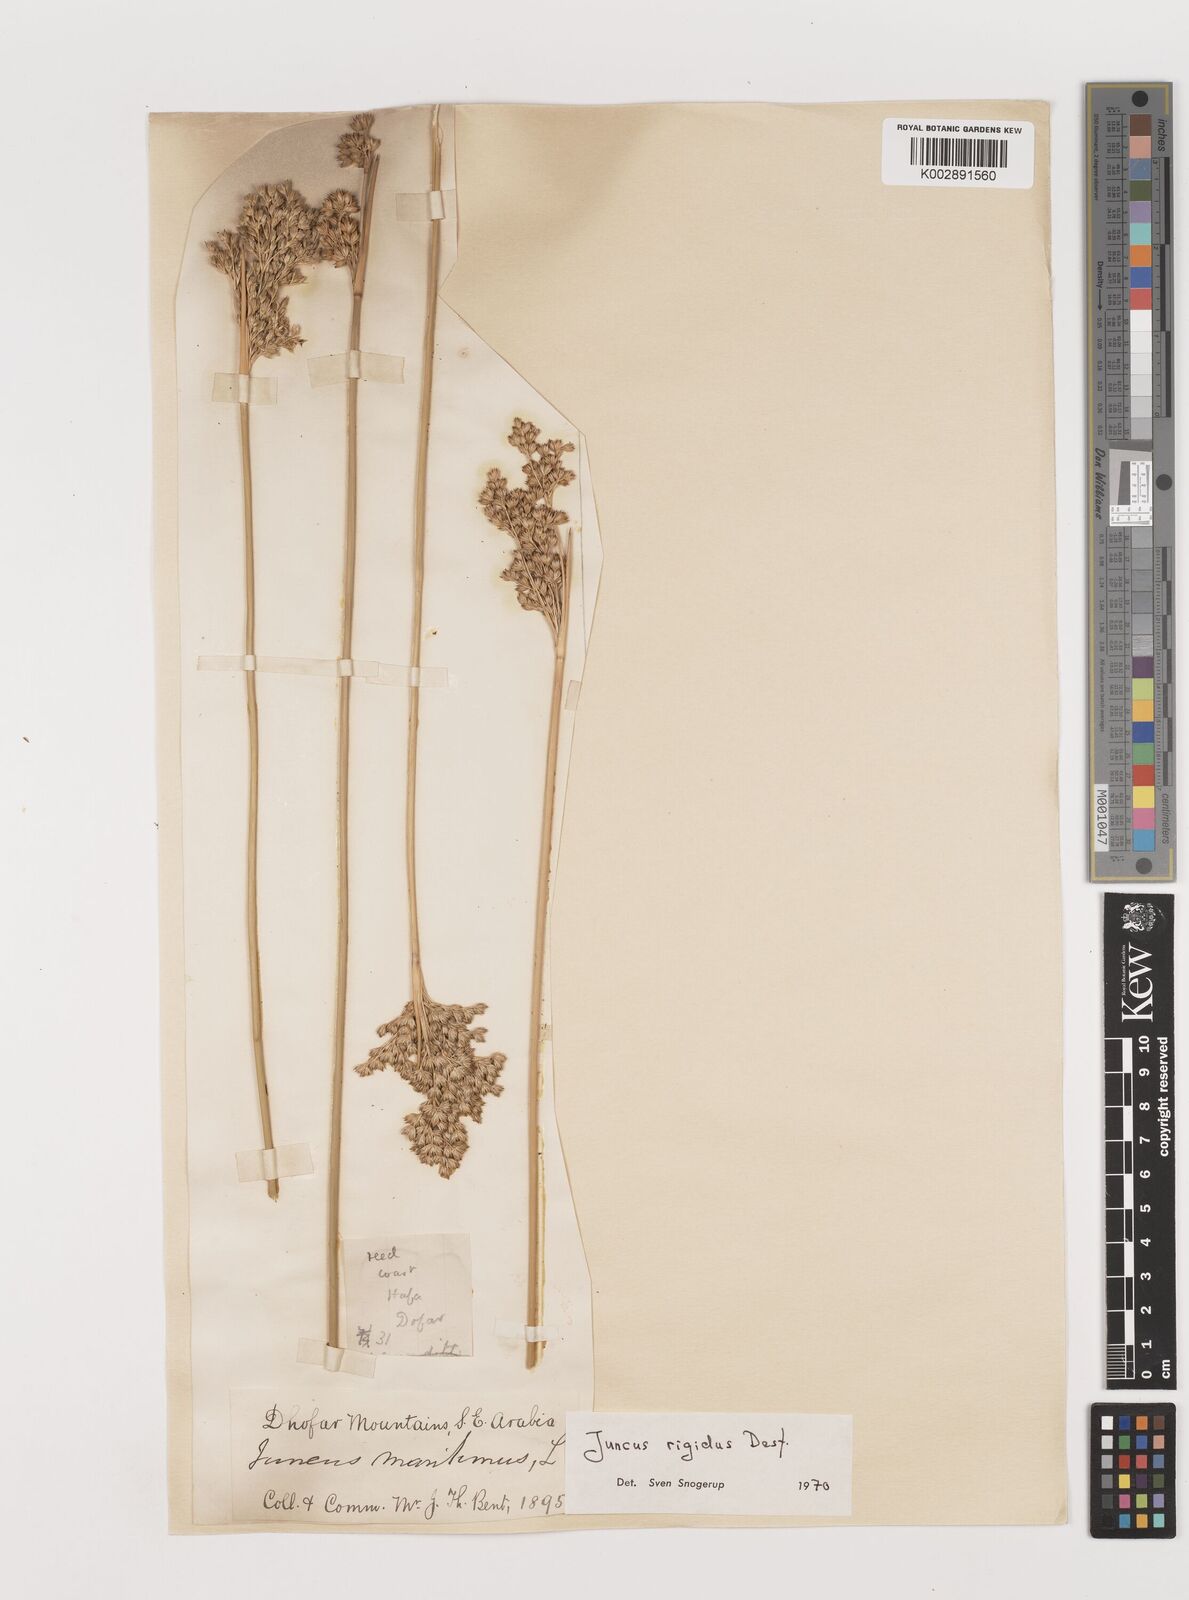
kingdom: Plantae
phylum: Tracheophyta
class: Liliopsida
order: Poales
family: Juncaceae
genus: Juncus
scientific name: Juncus rigidus
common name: Hard sea rush
